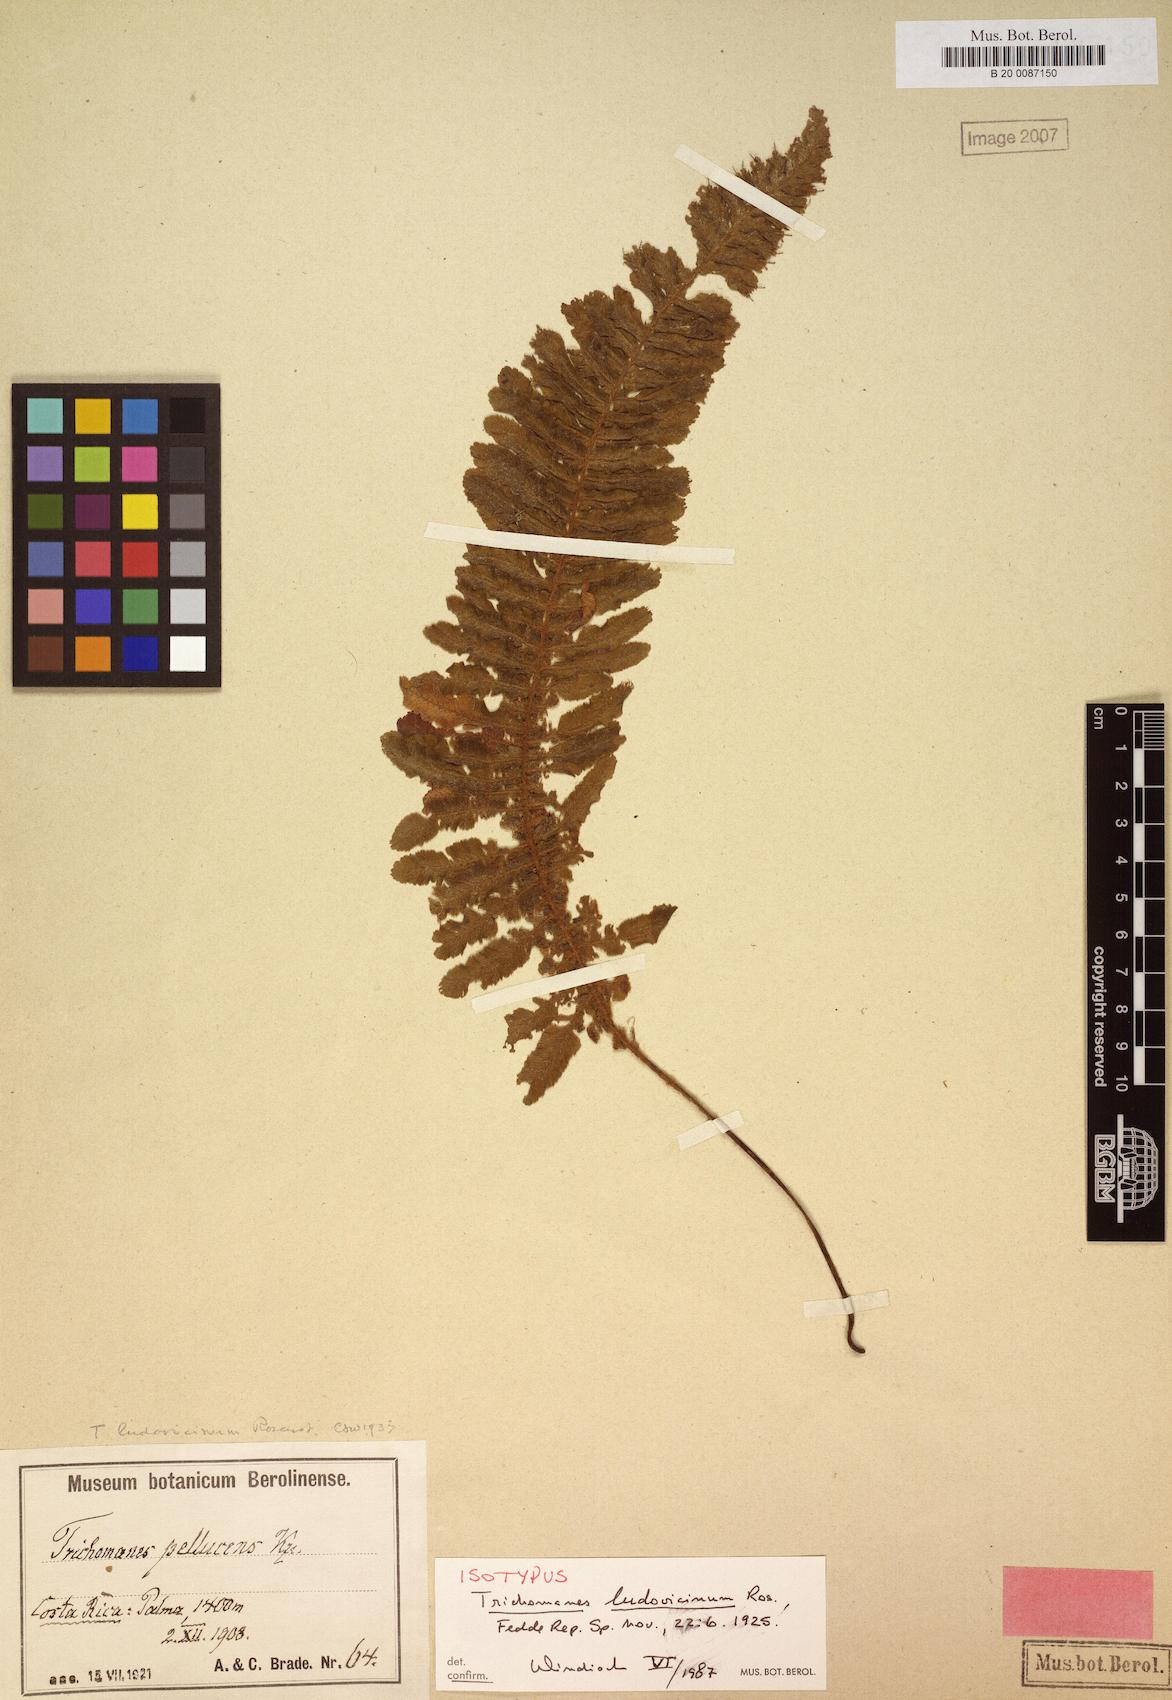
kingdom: Plantae
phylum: Tracheophyta
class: Polypodiopsida
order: Hymenophyllales
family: Hymenophyllaceae
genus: Trichomanes
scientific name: Trichomanes ludovicinum
